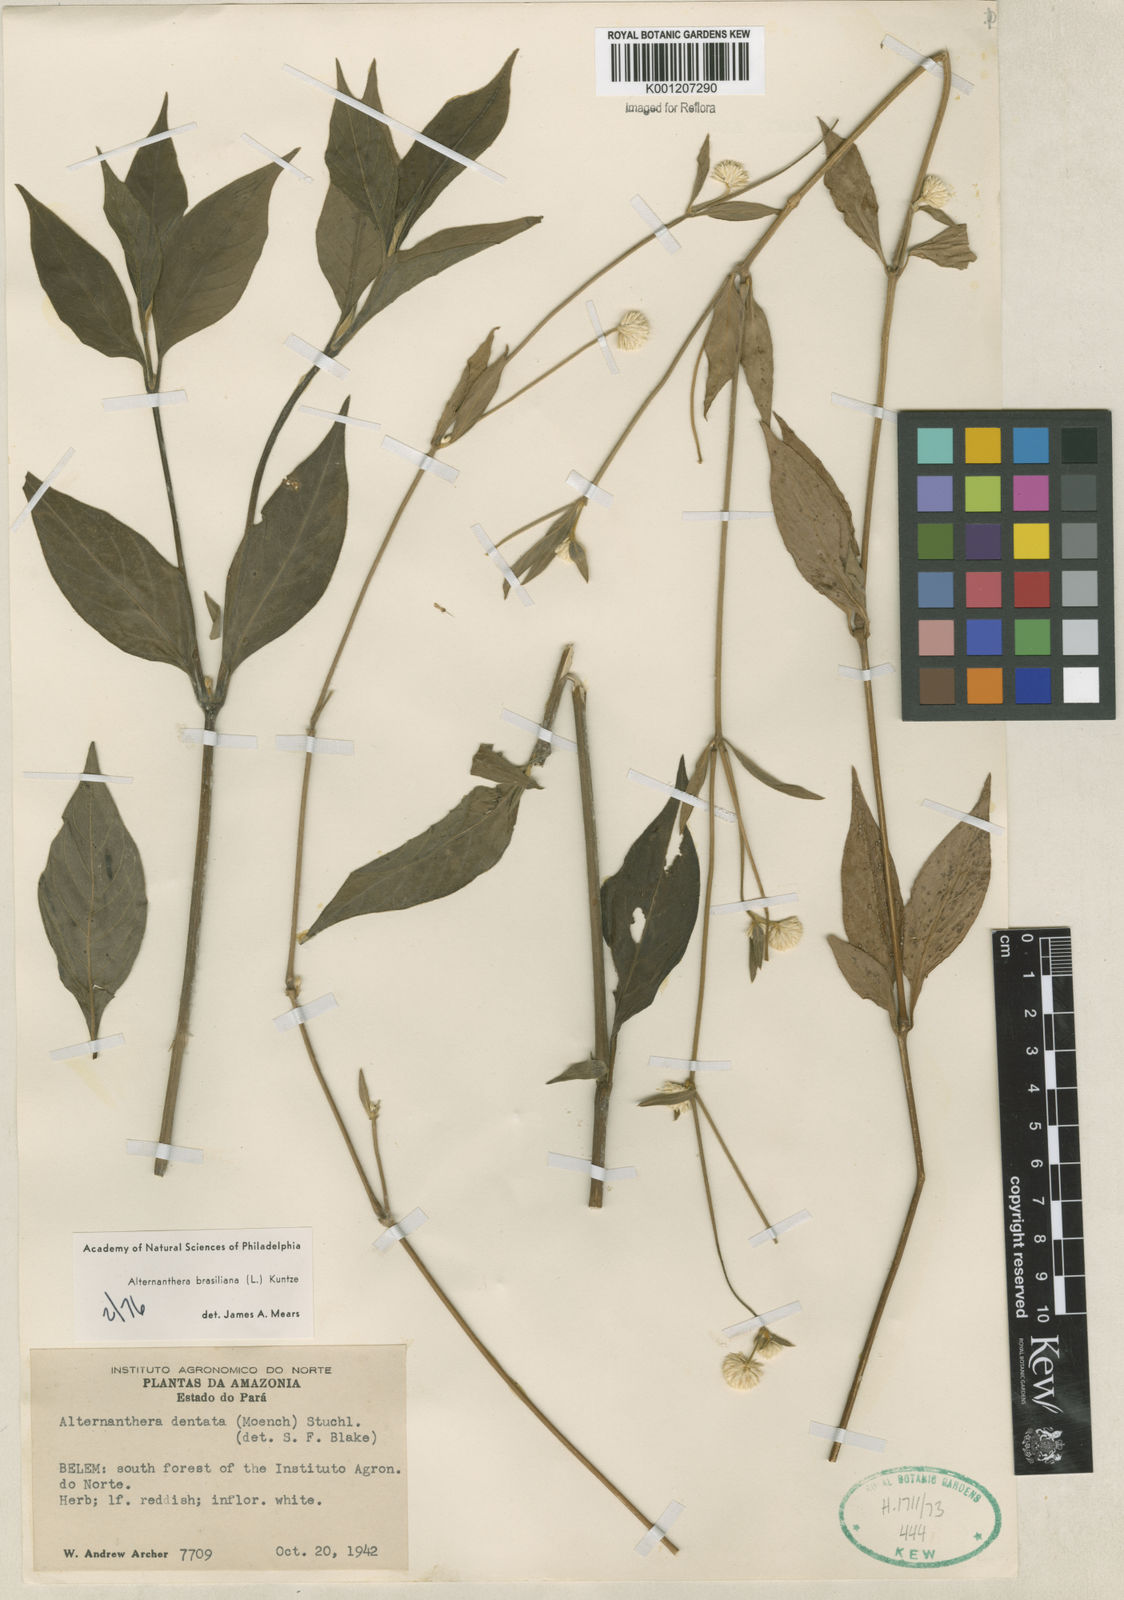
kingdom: Plantae
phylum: Tracheophyta
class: Magnoliopsida
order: Caryophyllales
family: Amaranthaceae
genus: Alternanthera
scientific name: Alternanthera brasiliana
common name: Brazilian joyweed
